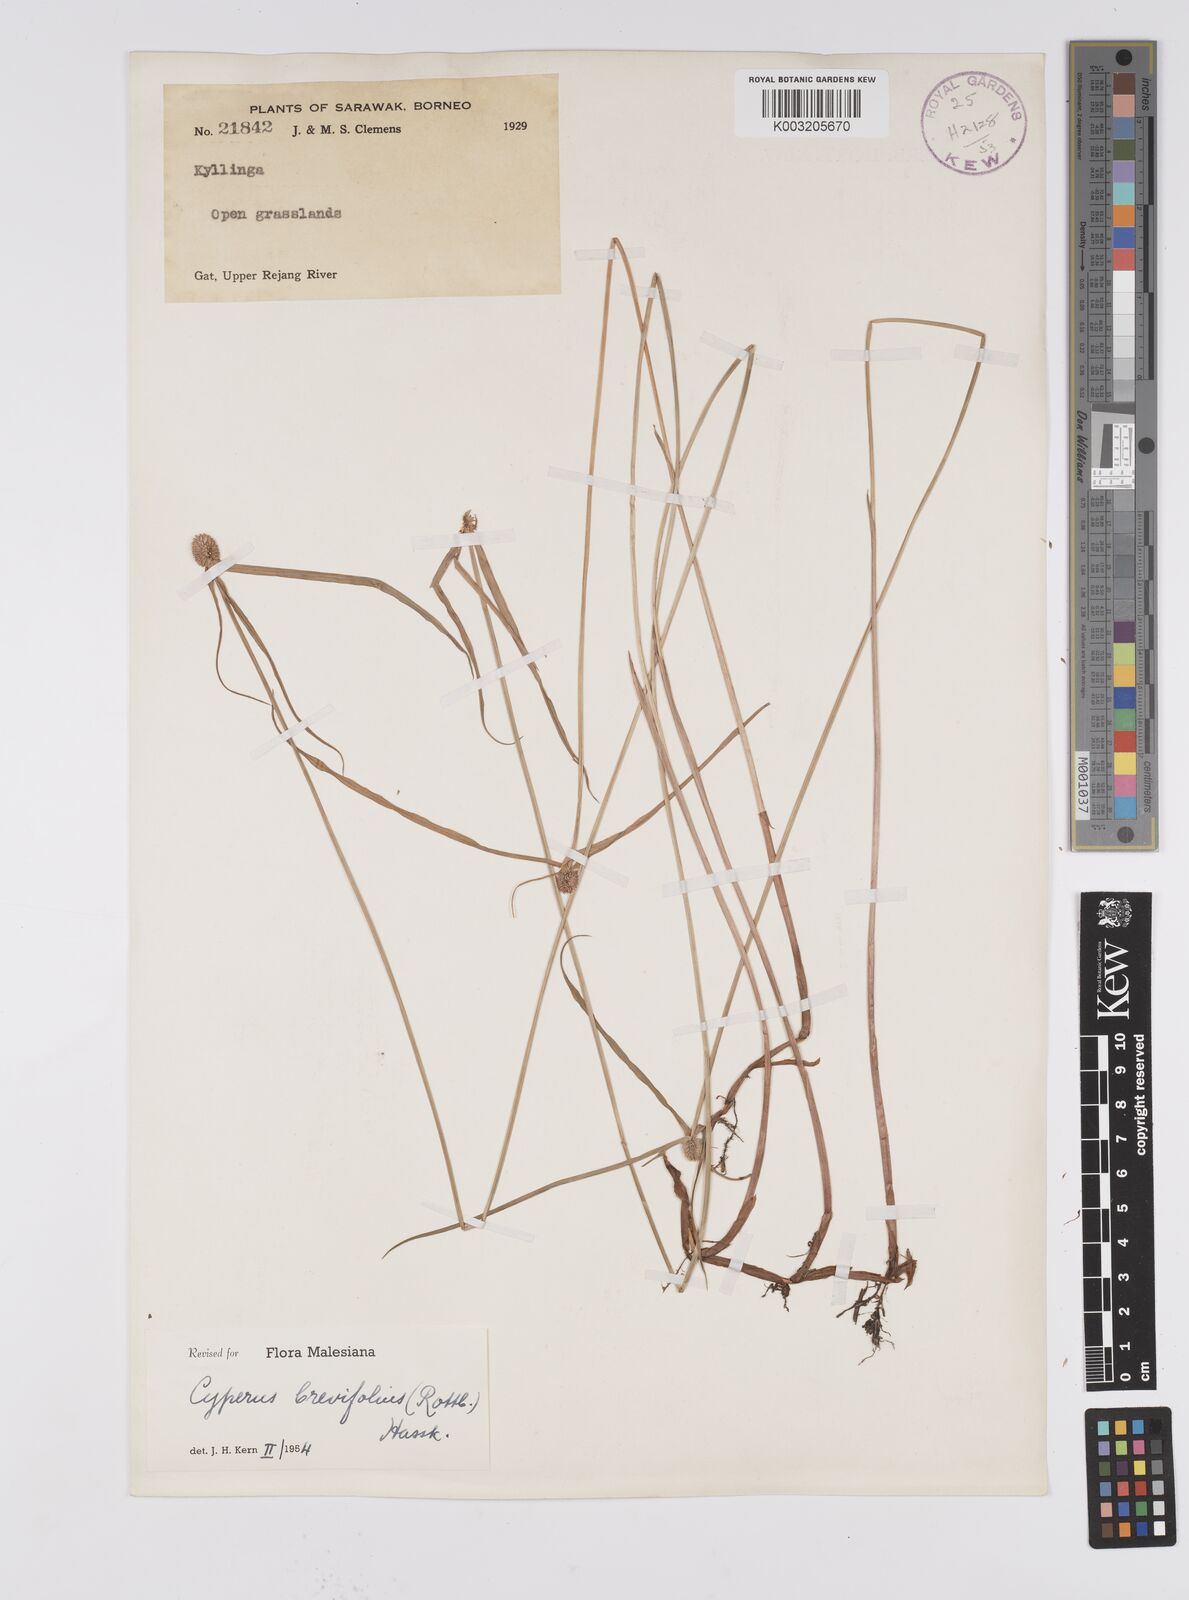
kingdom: Plantae
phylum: Tracheophyta
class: Liliopsida
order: Poales
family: Cyperaceae
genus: Cyperus
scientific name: Cyperus brevifolius
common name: Globe kyllinga
